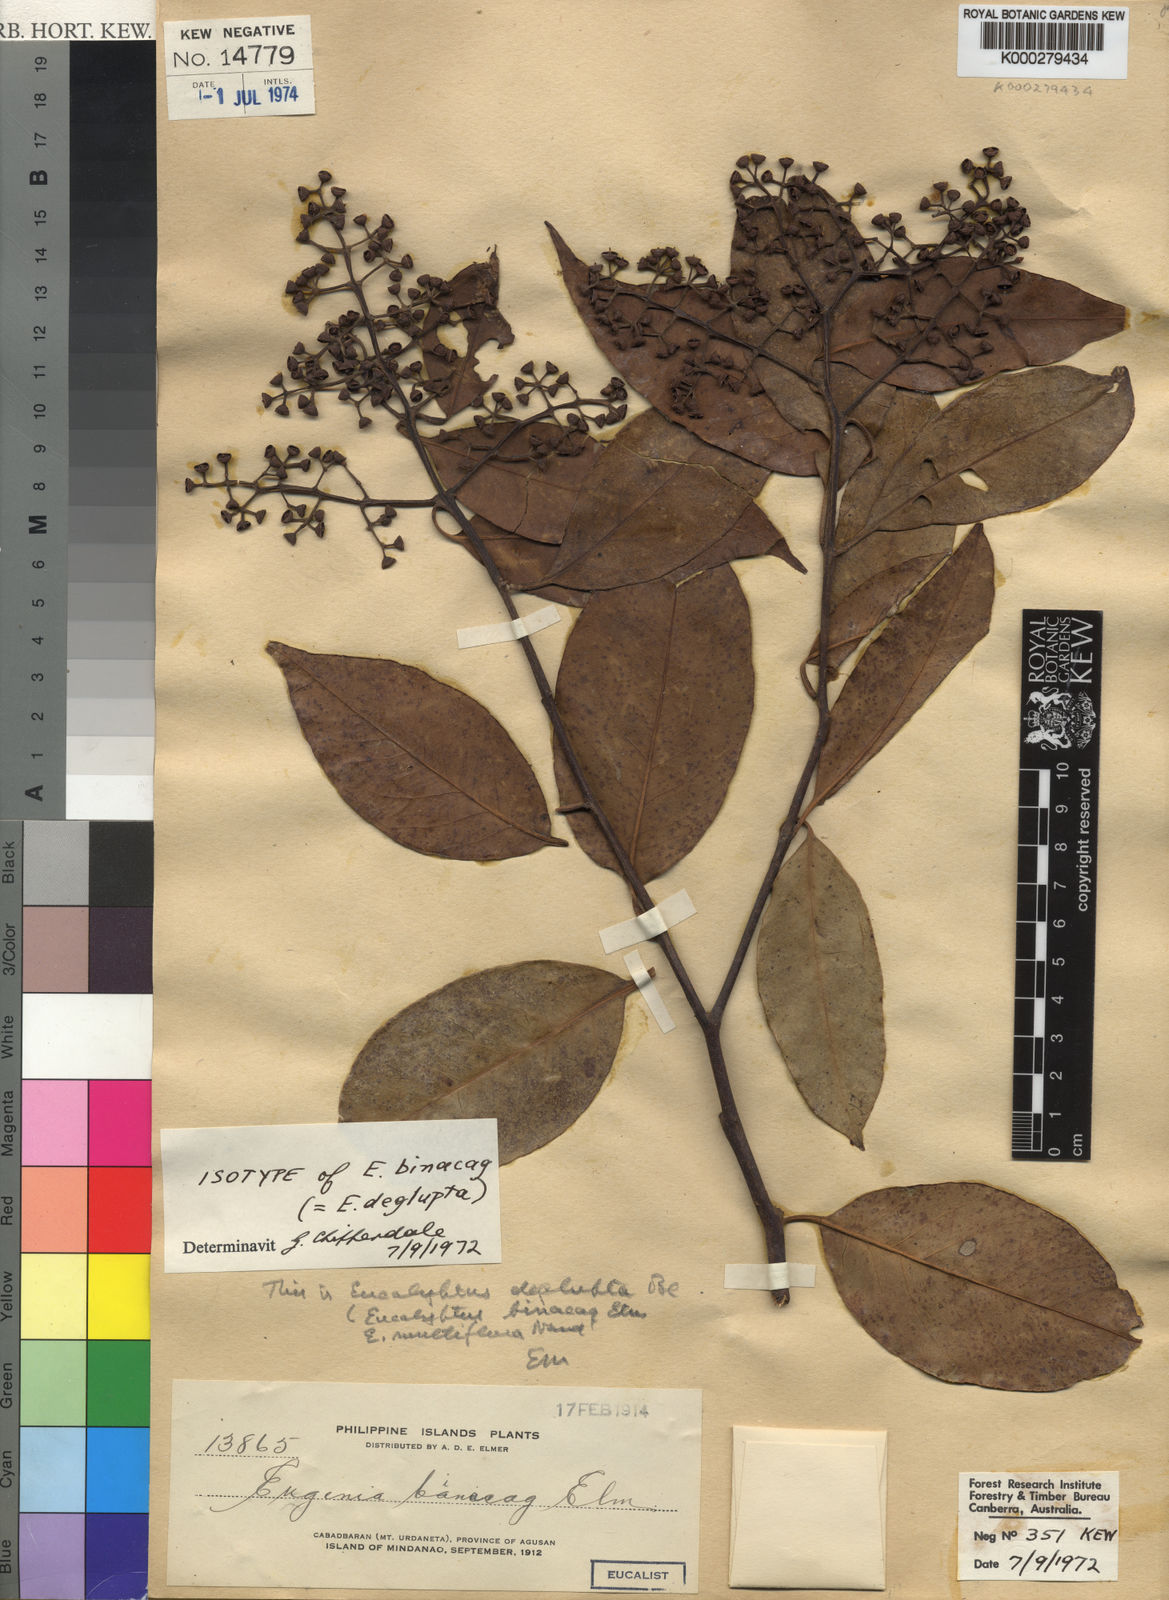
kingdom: Plantae
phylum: Tracheophyta
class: Magnoliopsida
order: Myrtales
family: Myrtaceae
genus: Eucalyptus
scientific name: Eucalyptus deglupta
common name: Mindanao gum
